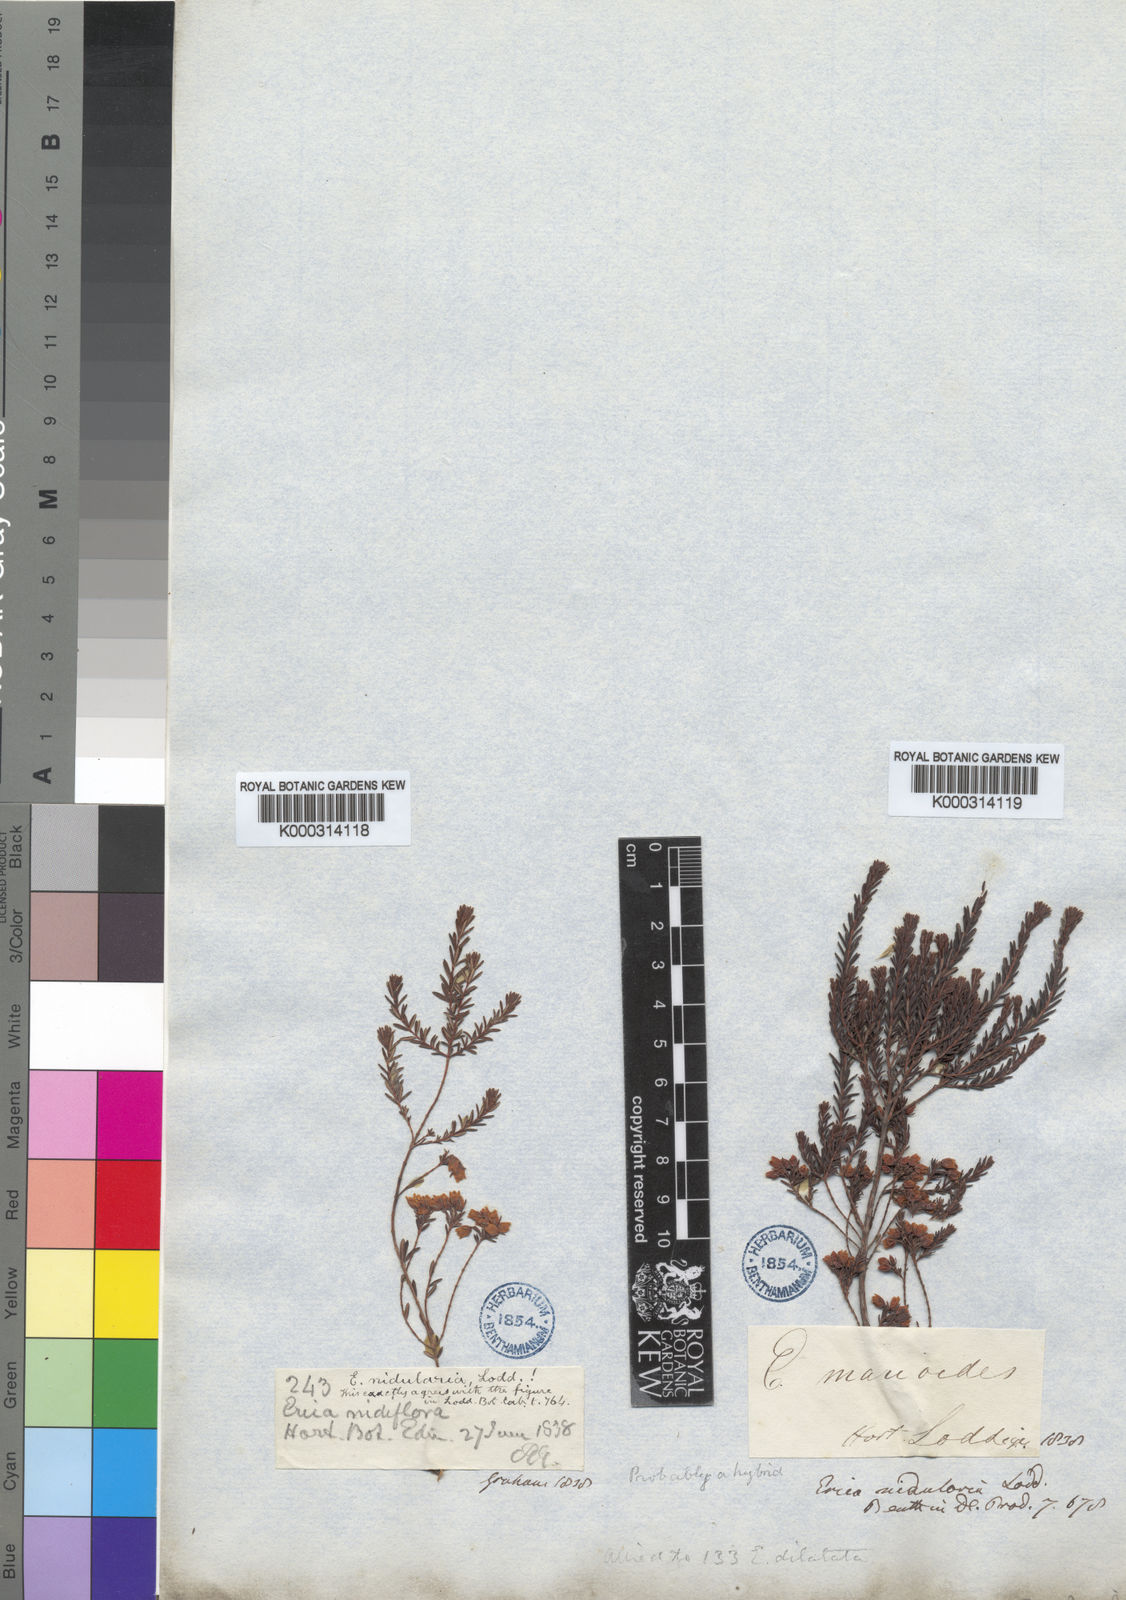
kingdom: Plantae
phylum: Tracheophyta
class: Magnoliopsida
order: Ericales
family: Ericaceae
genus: Erica
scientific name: Erica nidularia
